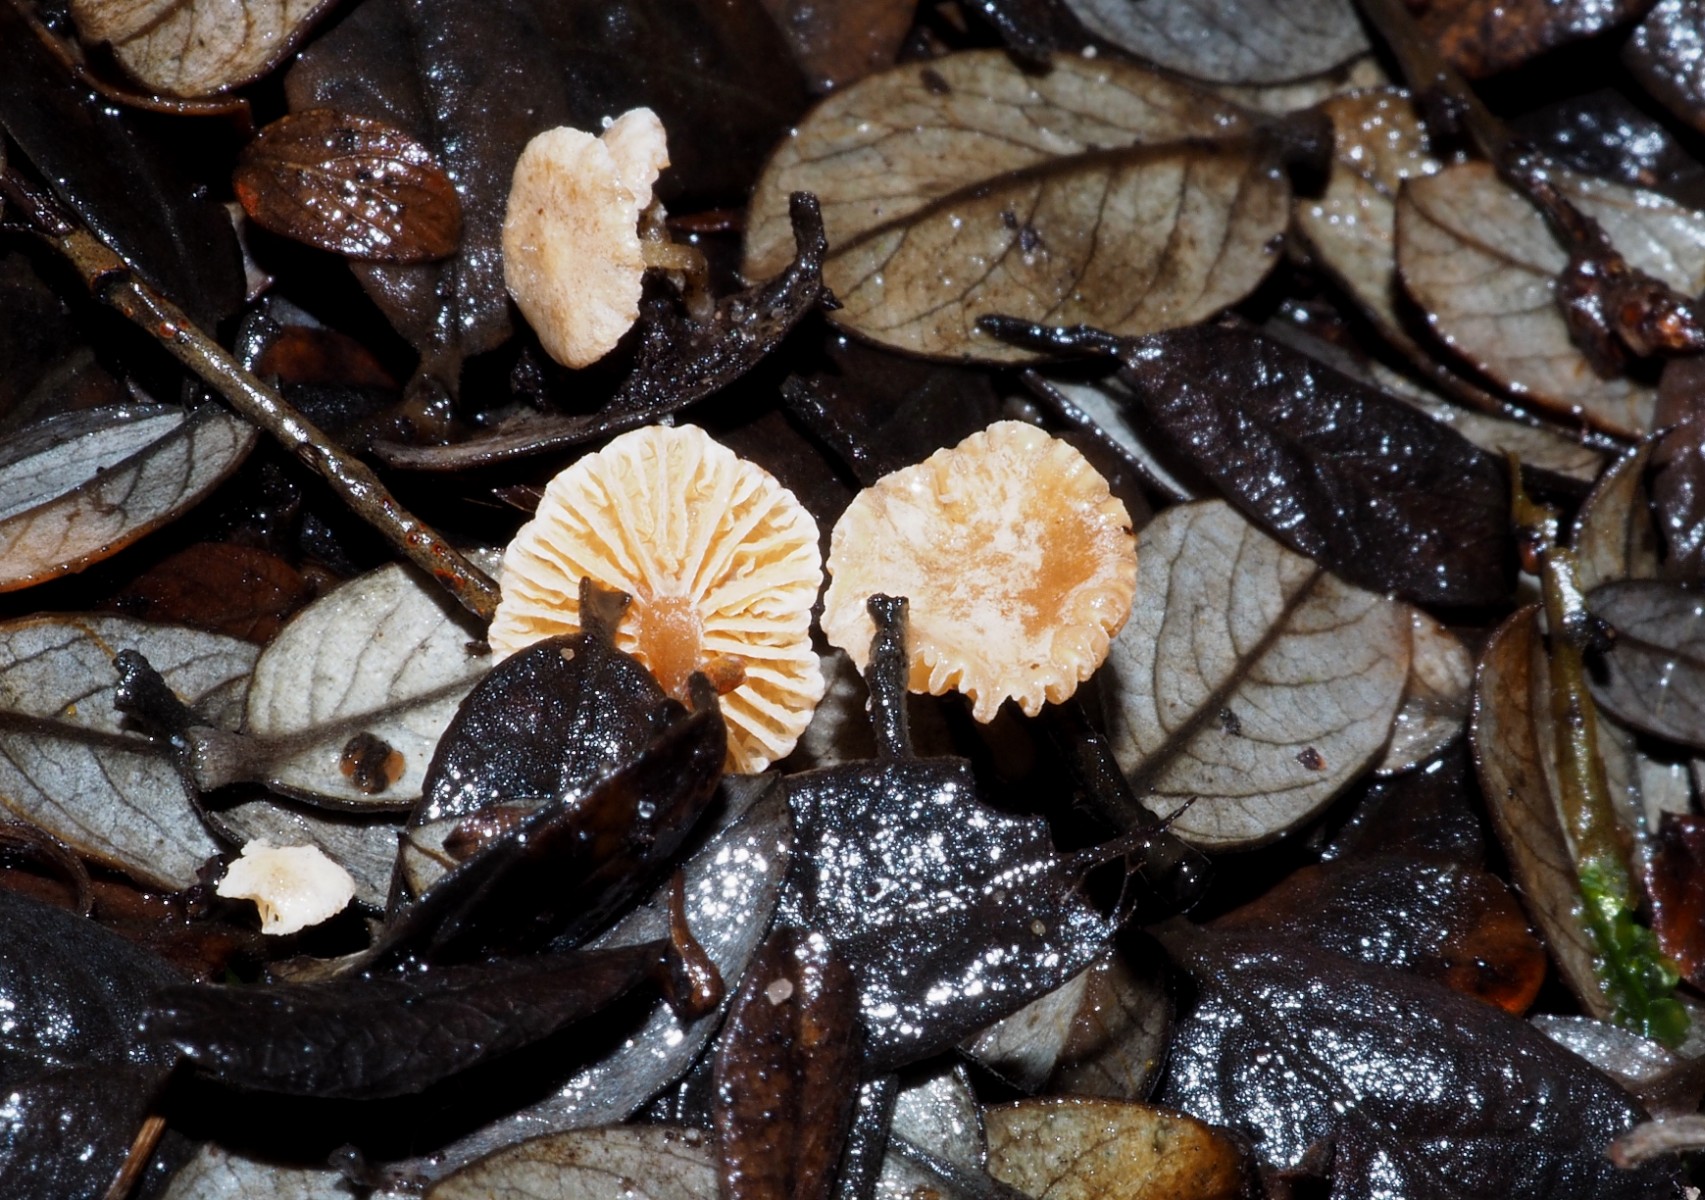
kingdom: Fungi
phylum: Basidiomycota
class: Agaricomycetes
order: Agaricales
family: Tubariaceae
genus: Flammulaster
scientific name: Flammulaster carpophilus
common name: bøge-grynskælhat
